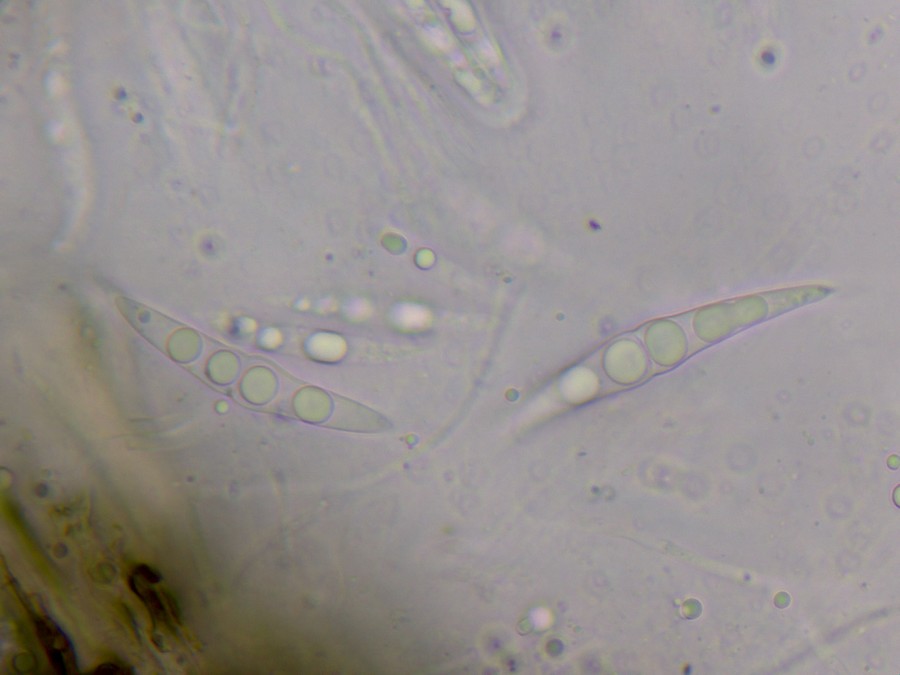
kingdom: Fungi
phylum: Ascomycota
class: Dothideomycetes
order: Pleosporales
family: Lophiostomataceae
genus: Lophiostoma
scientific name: Lophiostoma semiliberum
